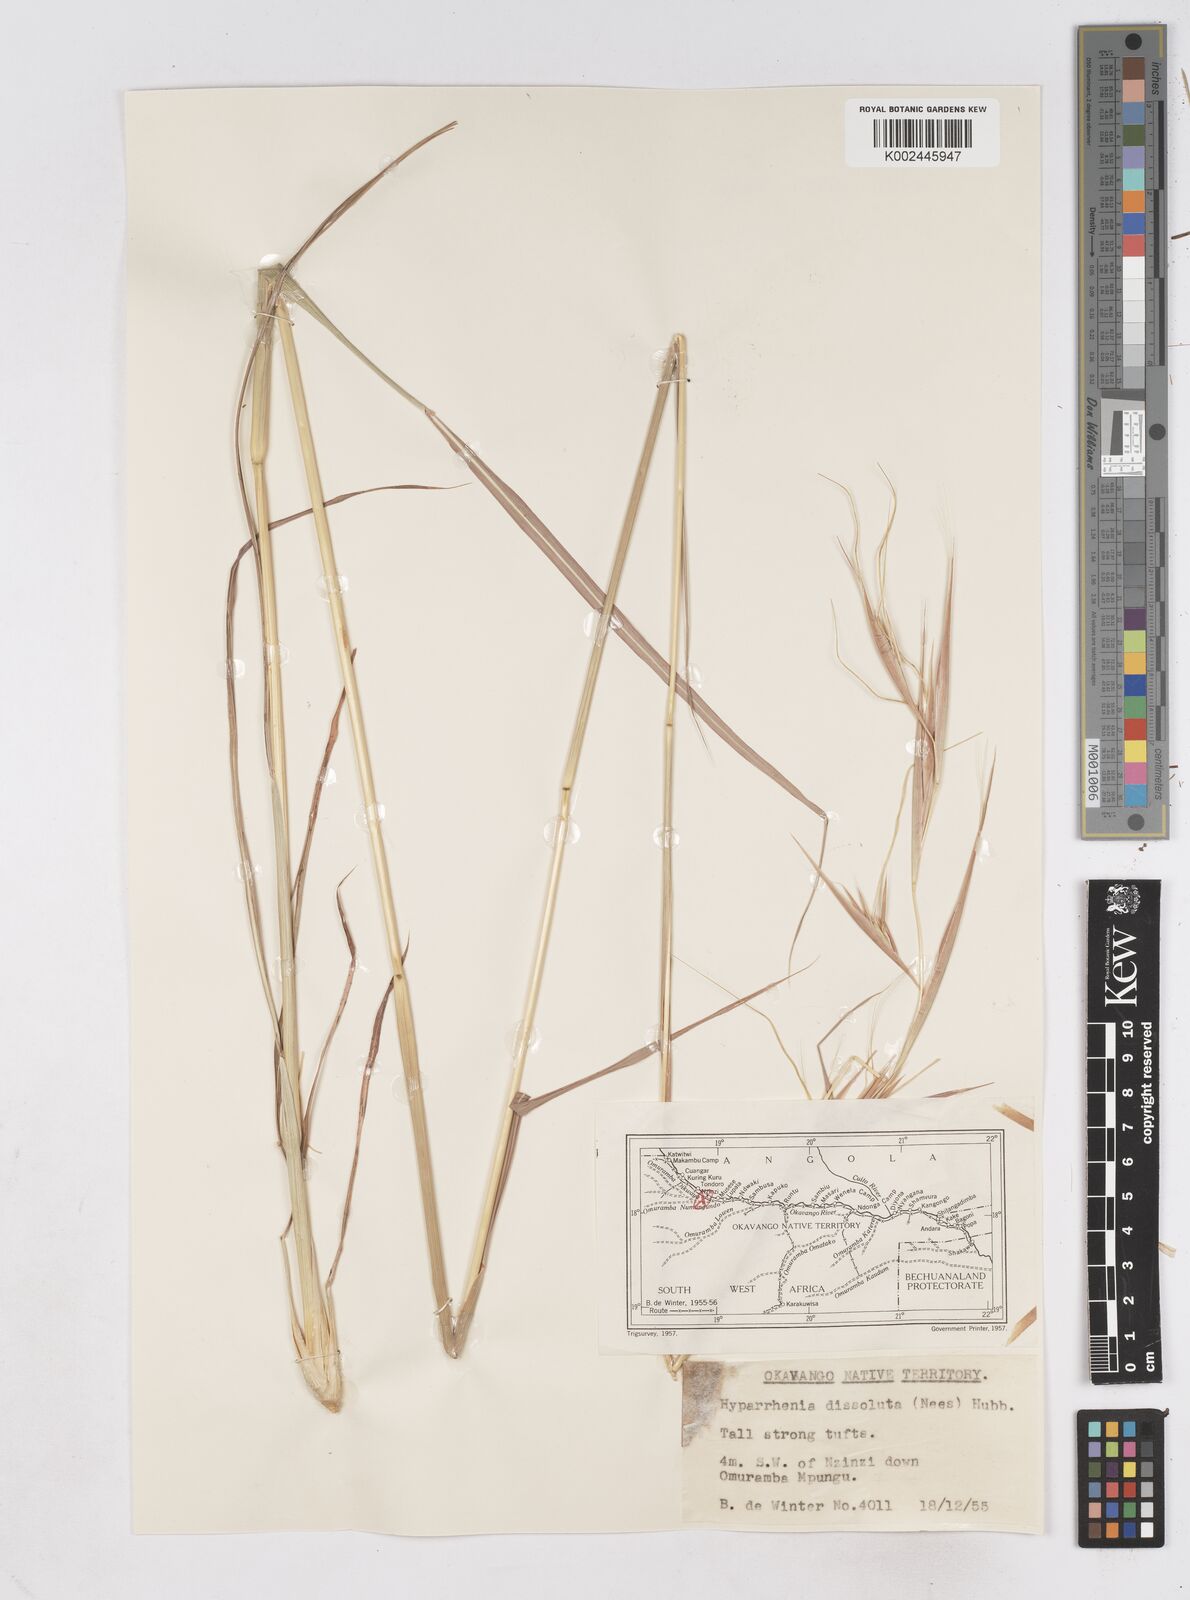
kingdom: Plantae
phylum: Tracheophyta
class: Liliopsida
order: Poales
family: Poaceae
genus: Hyperthelia
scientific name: Hyperthelia dissoluta
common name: Yellow thatching grass
